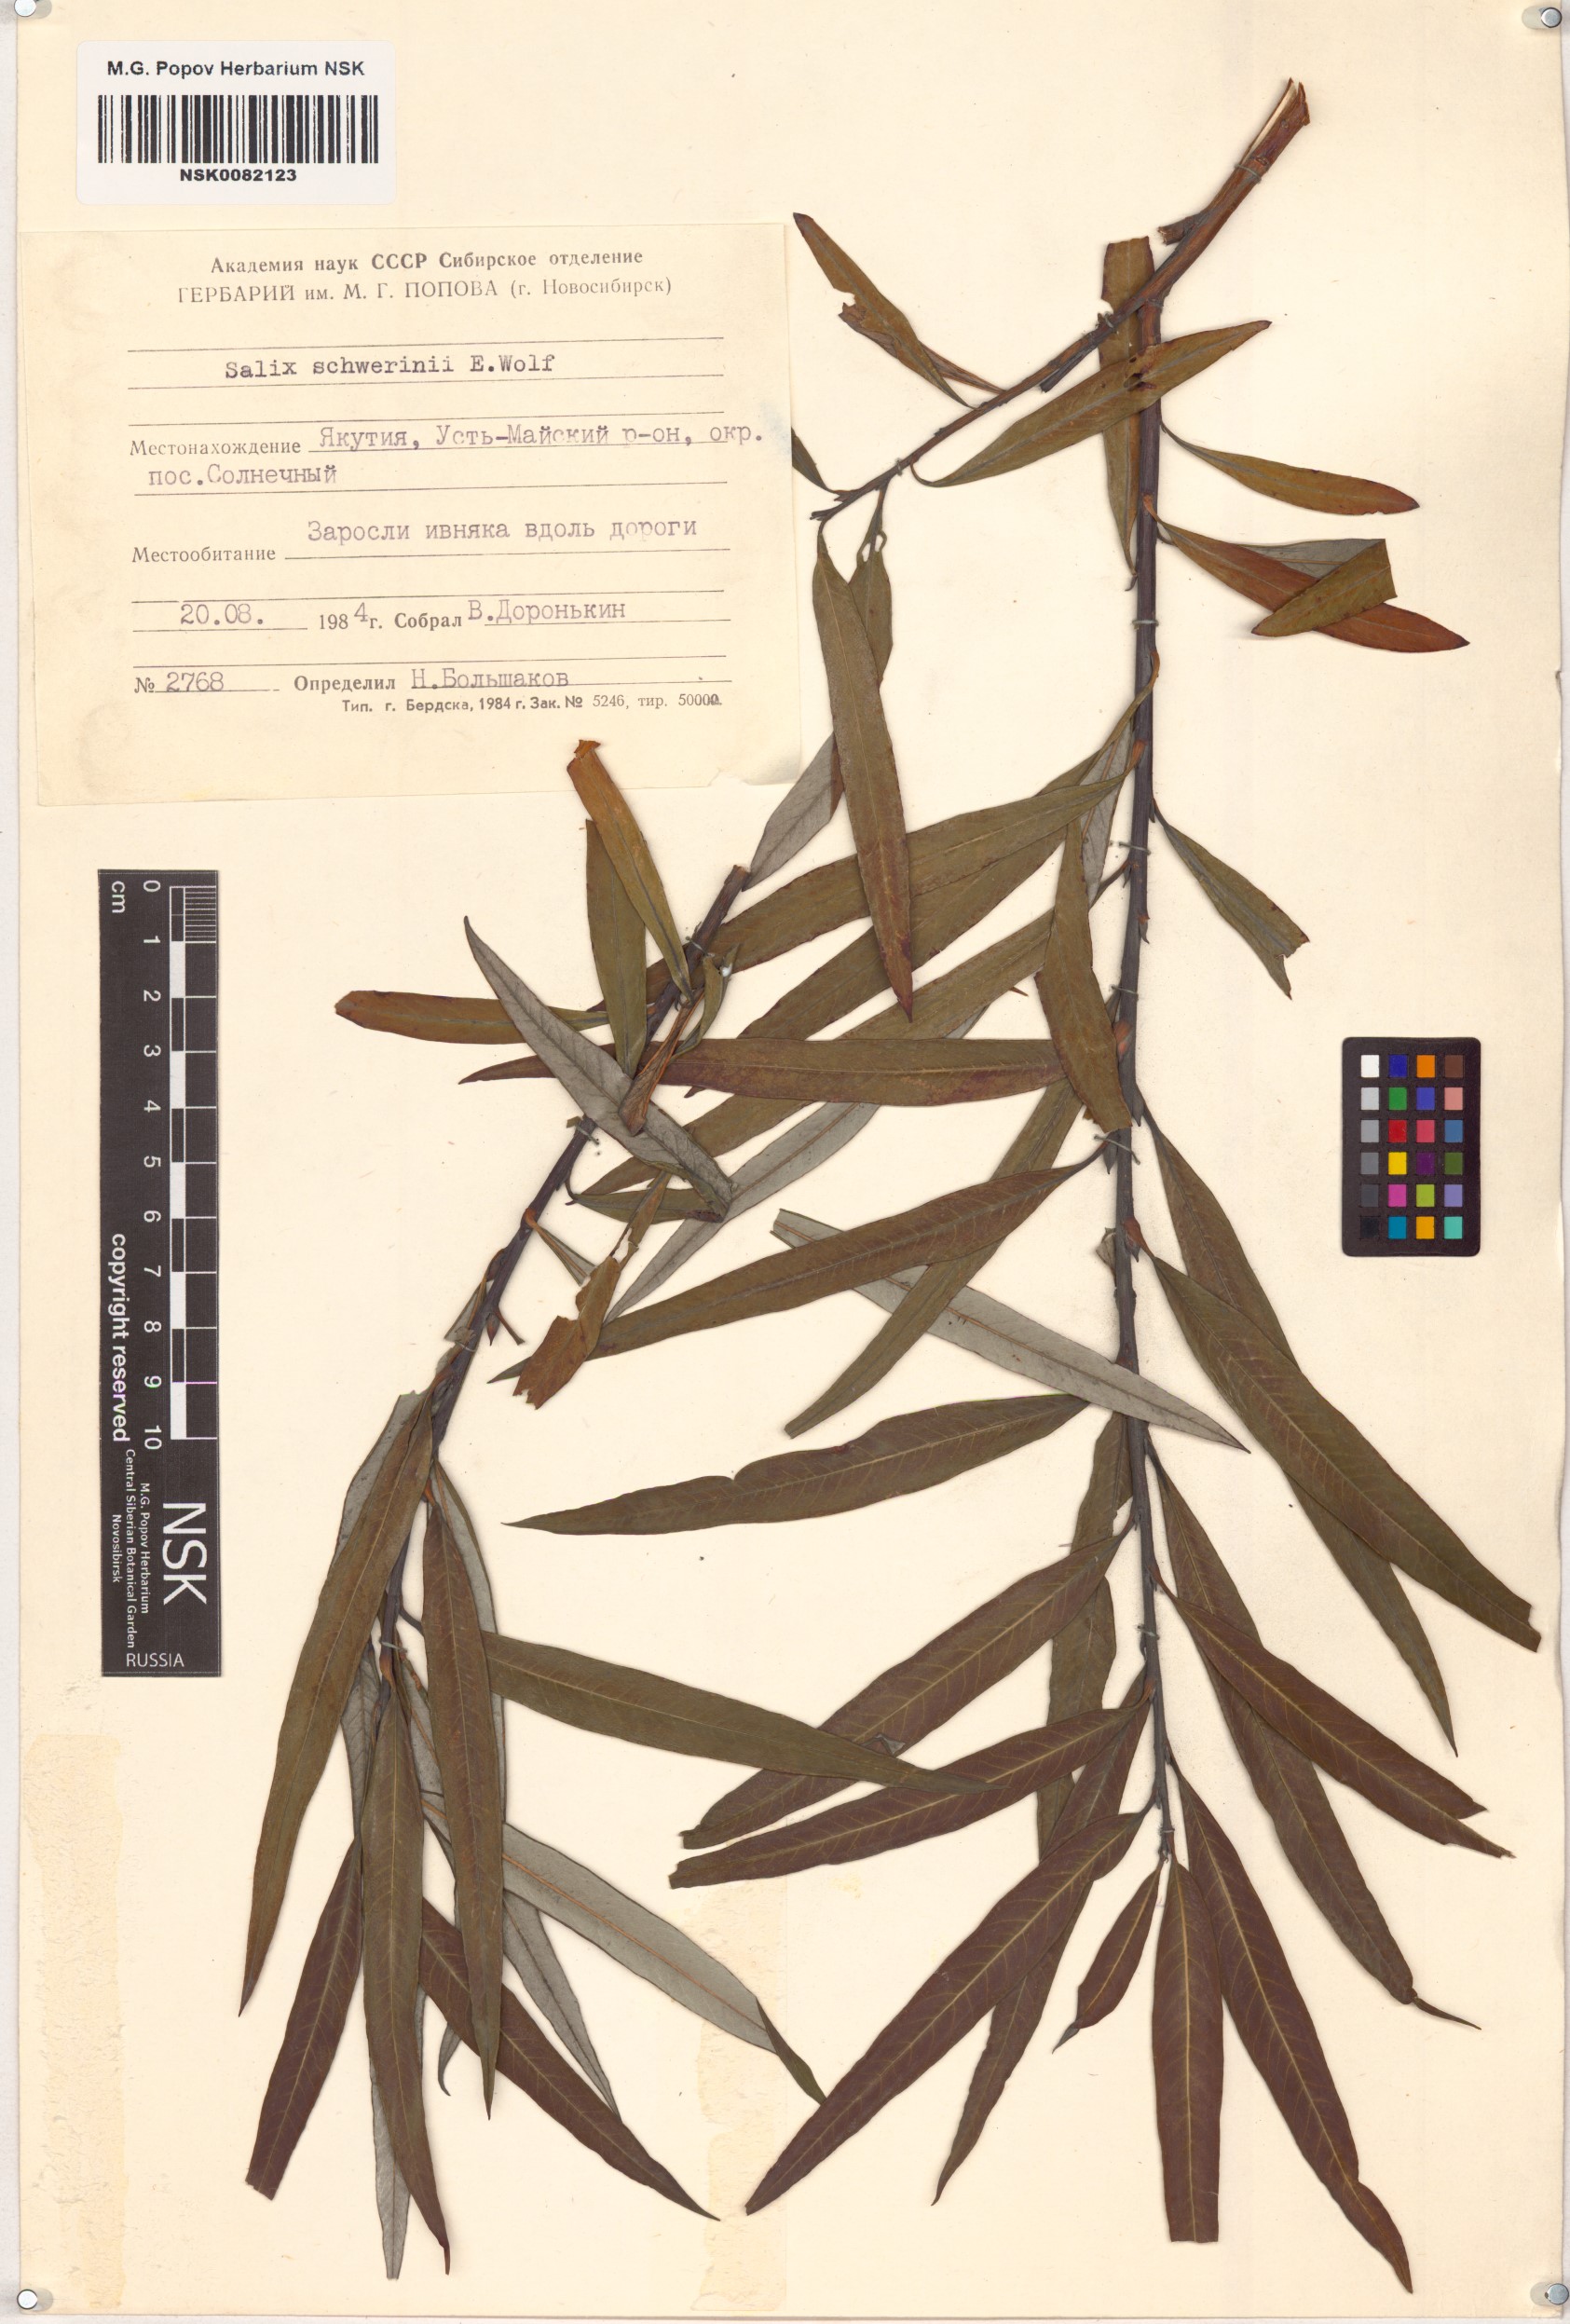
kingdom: Plantae
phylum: Tracheophyta
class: Magnoliopsida
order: Malpighiales
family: Salicaceae
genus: Salix
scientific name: Salix schwerinii
